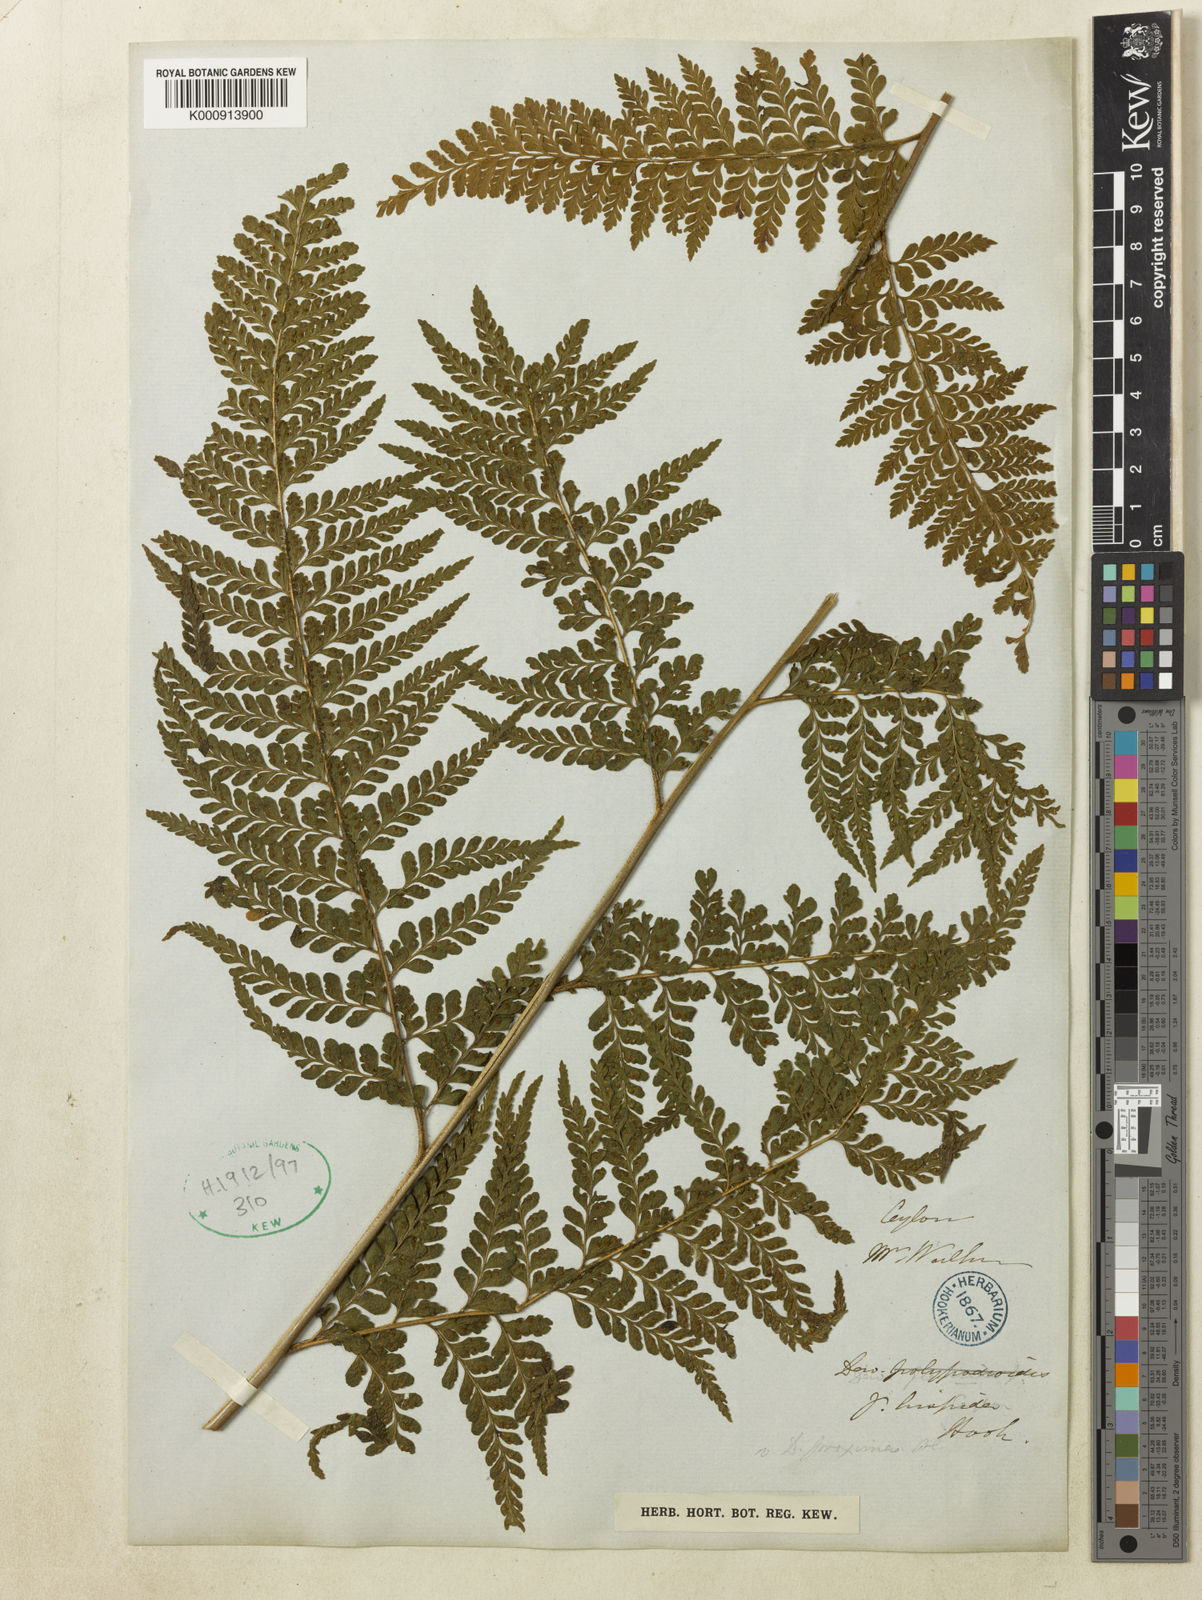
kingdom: Plantae
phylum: Tracheophyta
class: Polypodiopsida
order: Polypodiales
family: Dennstaedtiaceae
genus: Microlepia
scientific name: Microlepia majuscula
